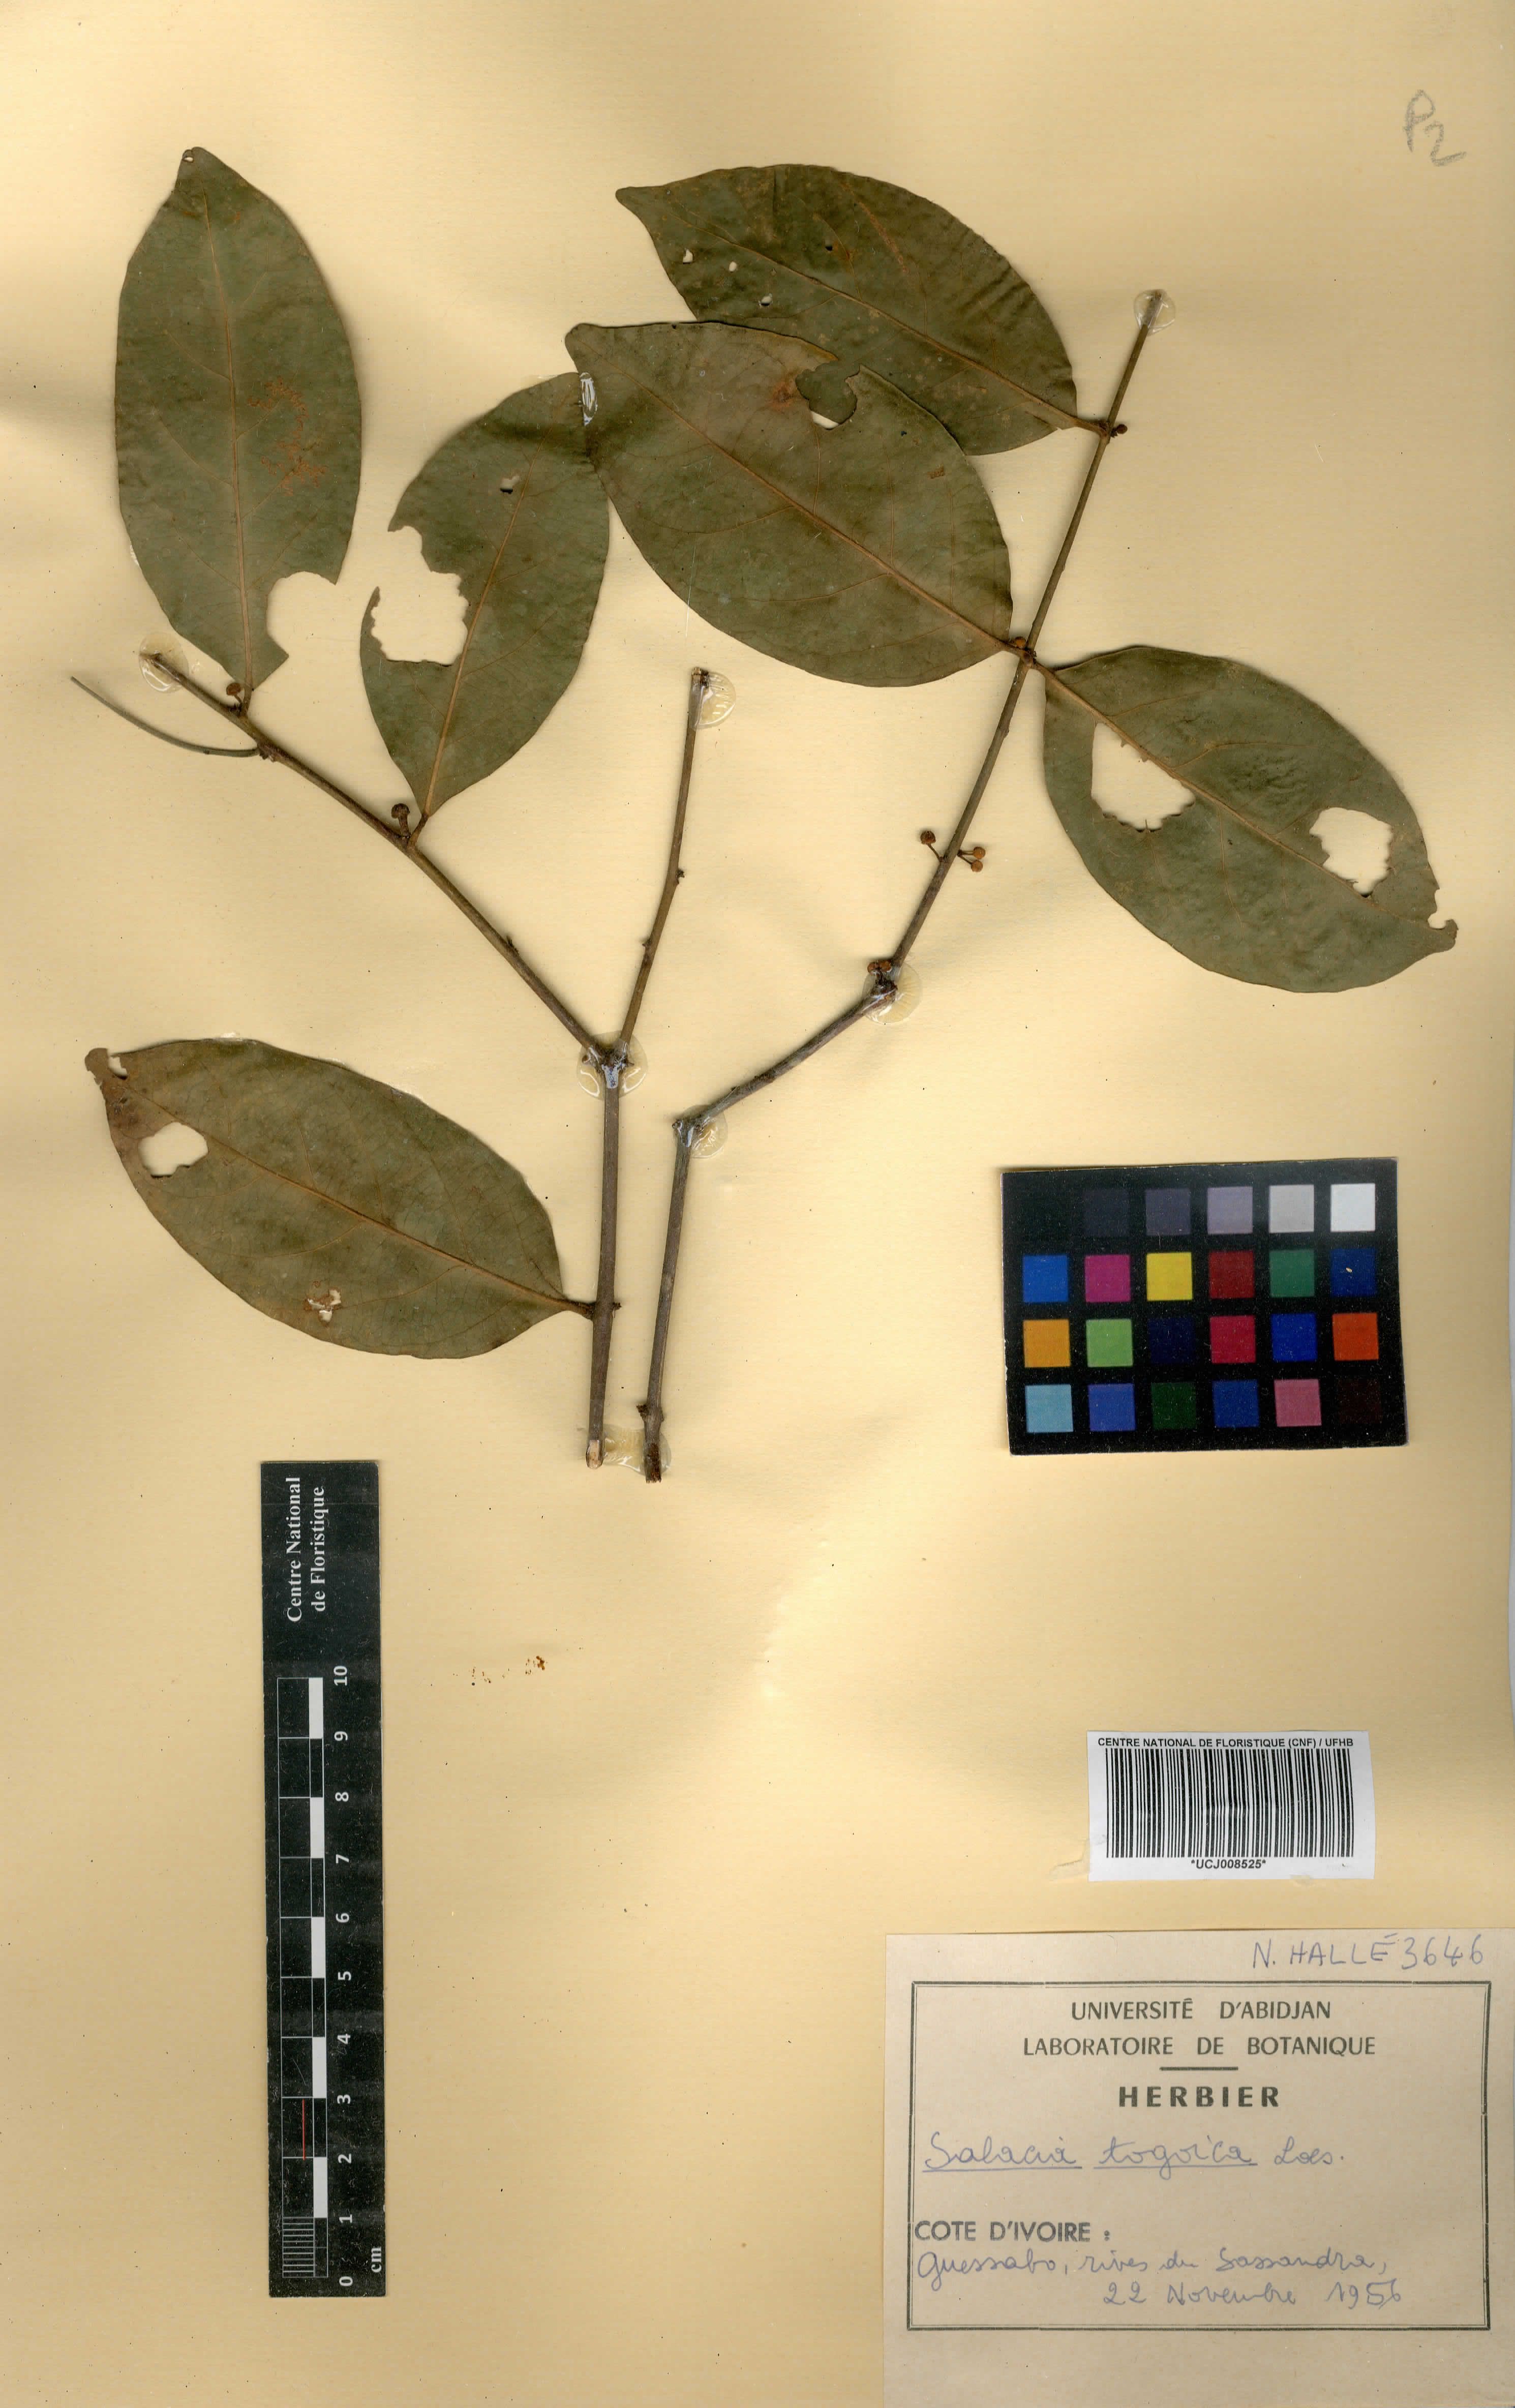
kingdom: Plantae
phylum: Tracheophyta
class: Magnoliopsida
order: Celastrales
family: Celastraceae
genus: Salacia
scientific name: Salacia togoica
